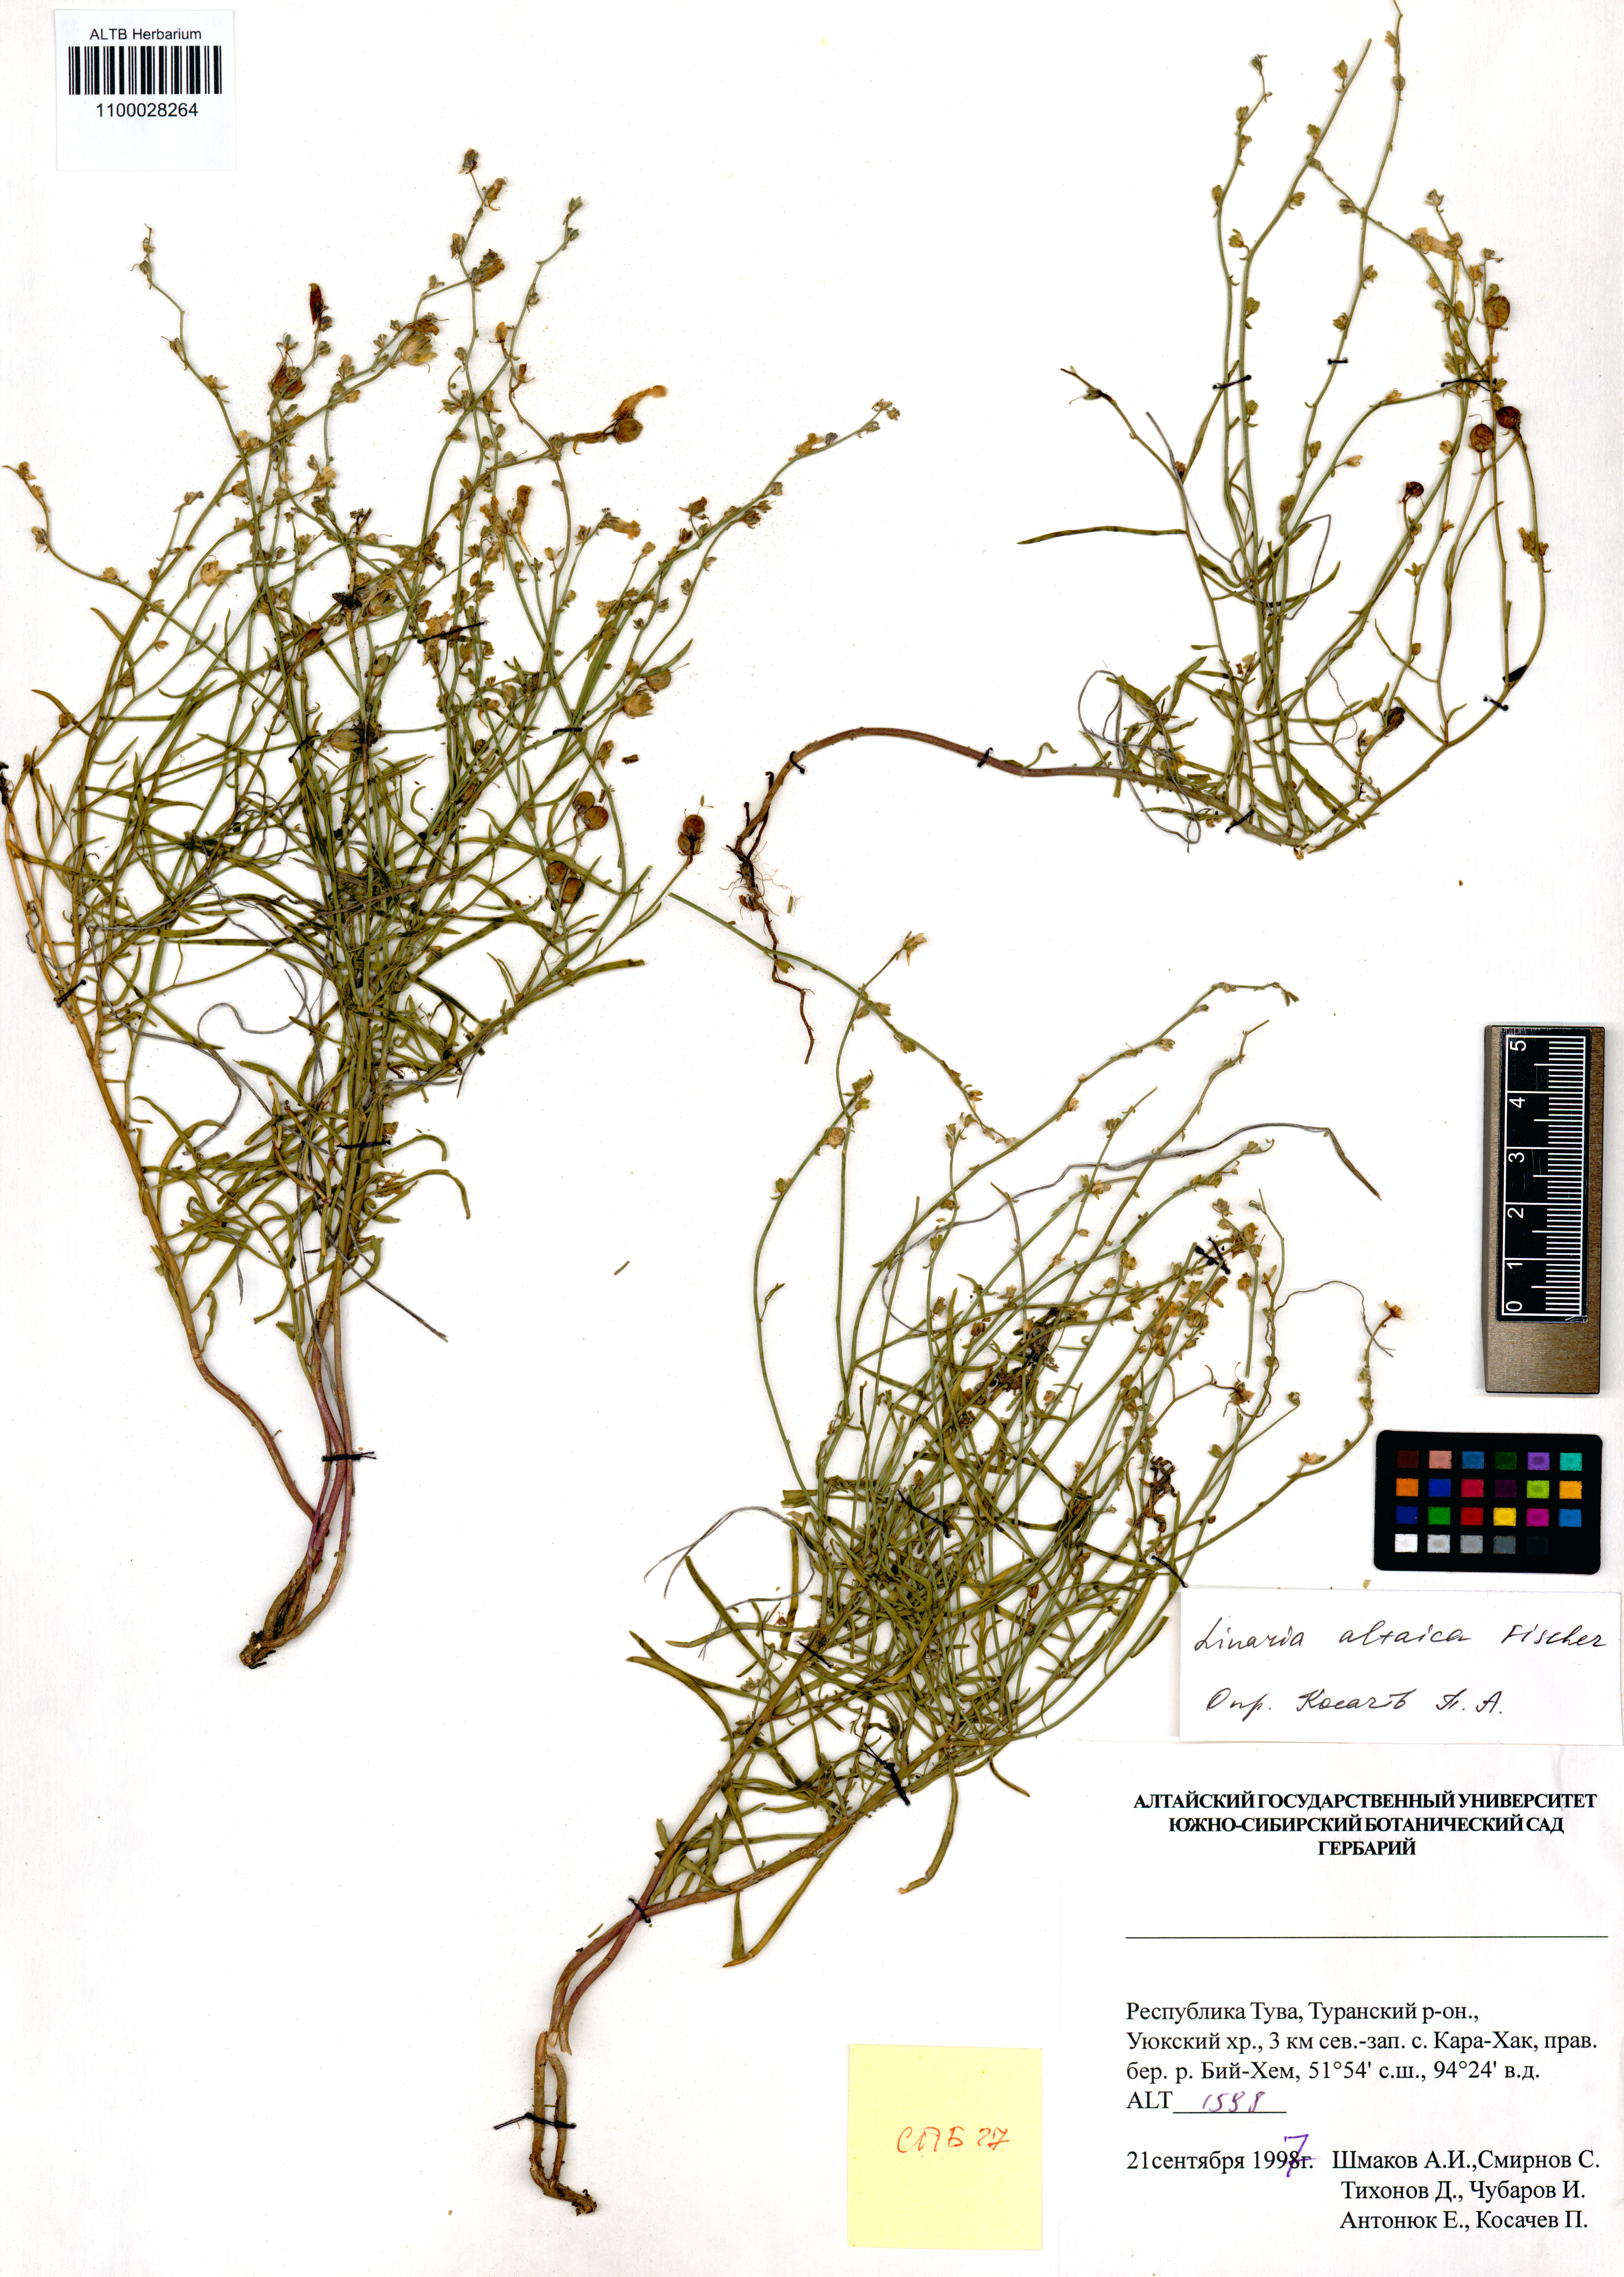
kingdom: Plantae
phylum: Tracheophyta
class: Magnoliopsida
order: Lamiales
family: Plantaginaceae
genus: Linaria
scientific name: Linaria altaica
